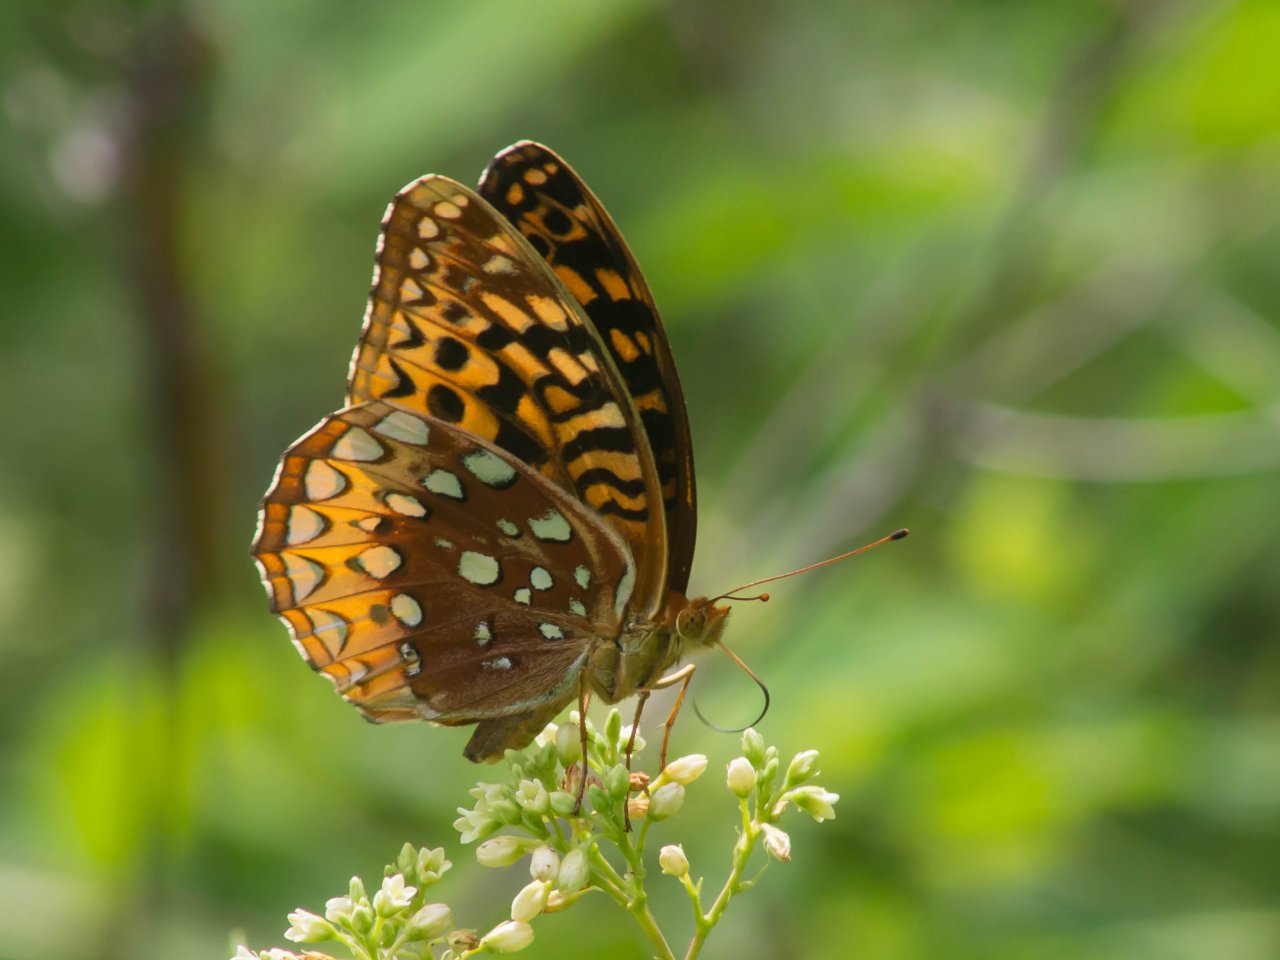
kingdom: Animalia
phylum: Arthropoda
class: Insecta
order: Lepidoptera
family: Nymphalidae
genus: Speyeria
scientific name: Speyeria cybele
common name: Great Spangled Fritillary
